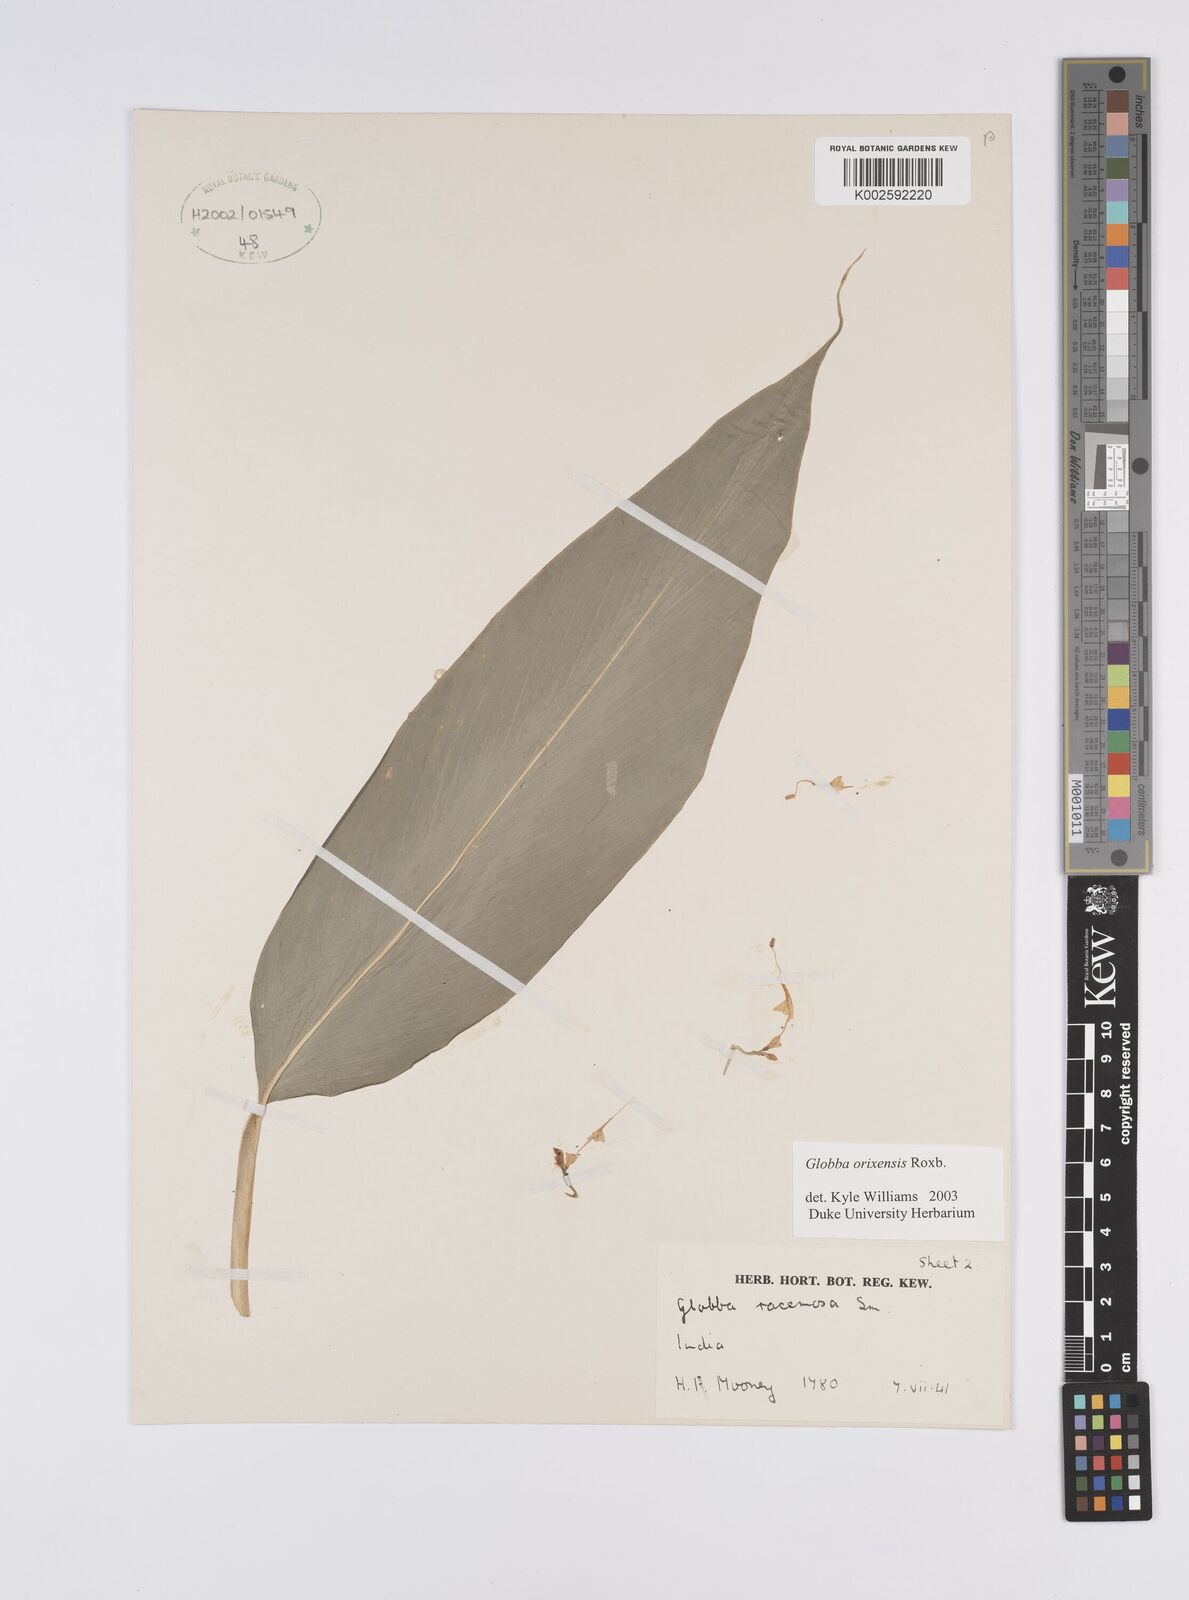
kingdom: Plantae
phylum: Tracheophyta
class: Liliopsida
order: Zingiberales
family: Zingiberaceae
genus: Globba
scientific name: Globba orixensis
